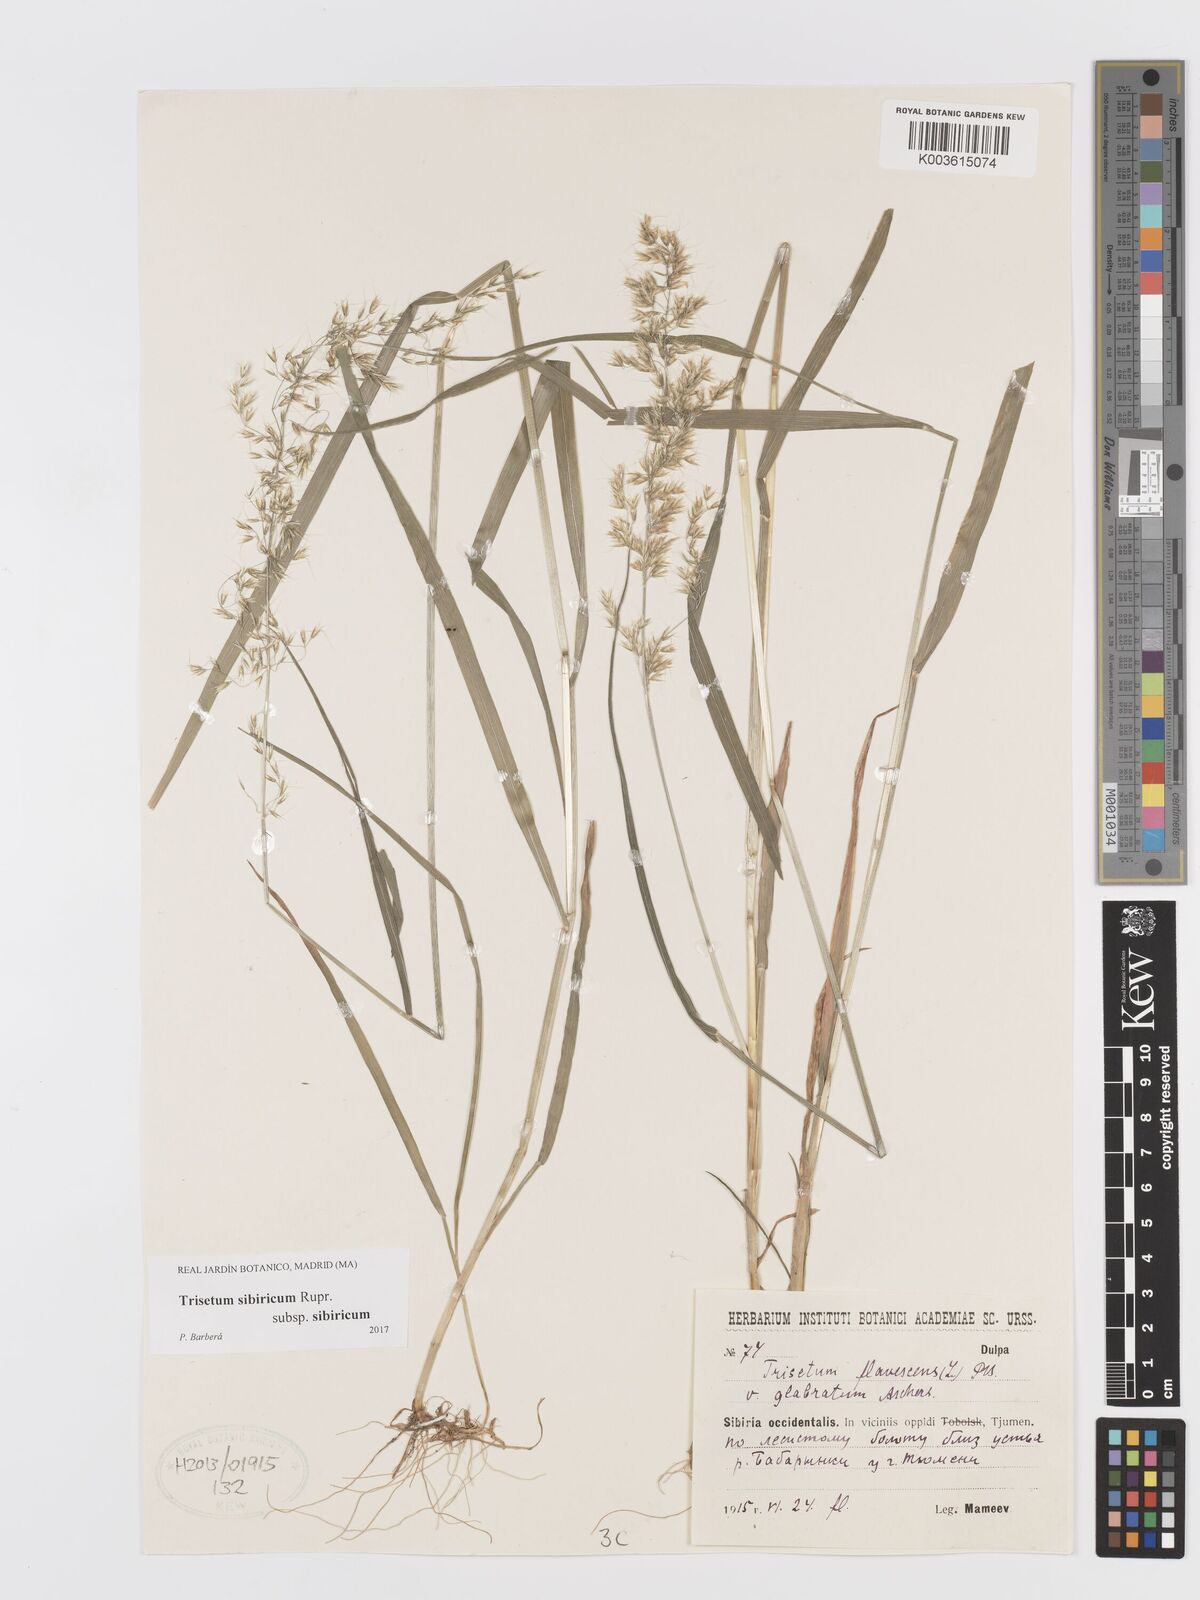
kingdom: Plantae
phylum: Tracheophyta
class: Liliopsida
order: Poales
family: Poaceae
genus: Sibirotrisetum
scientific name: Sibirotrisetum sibiricum
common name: Siberian false oat
